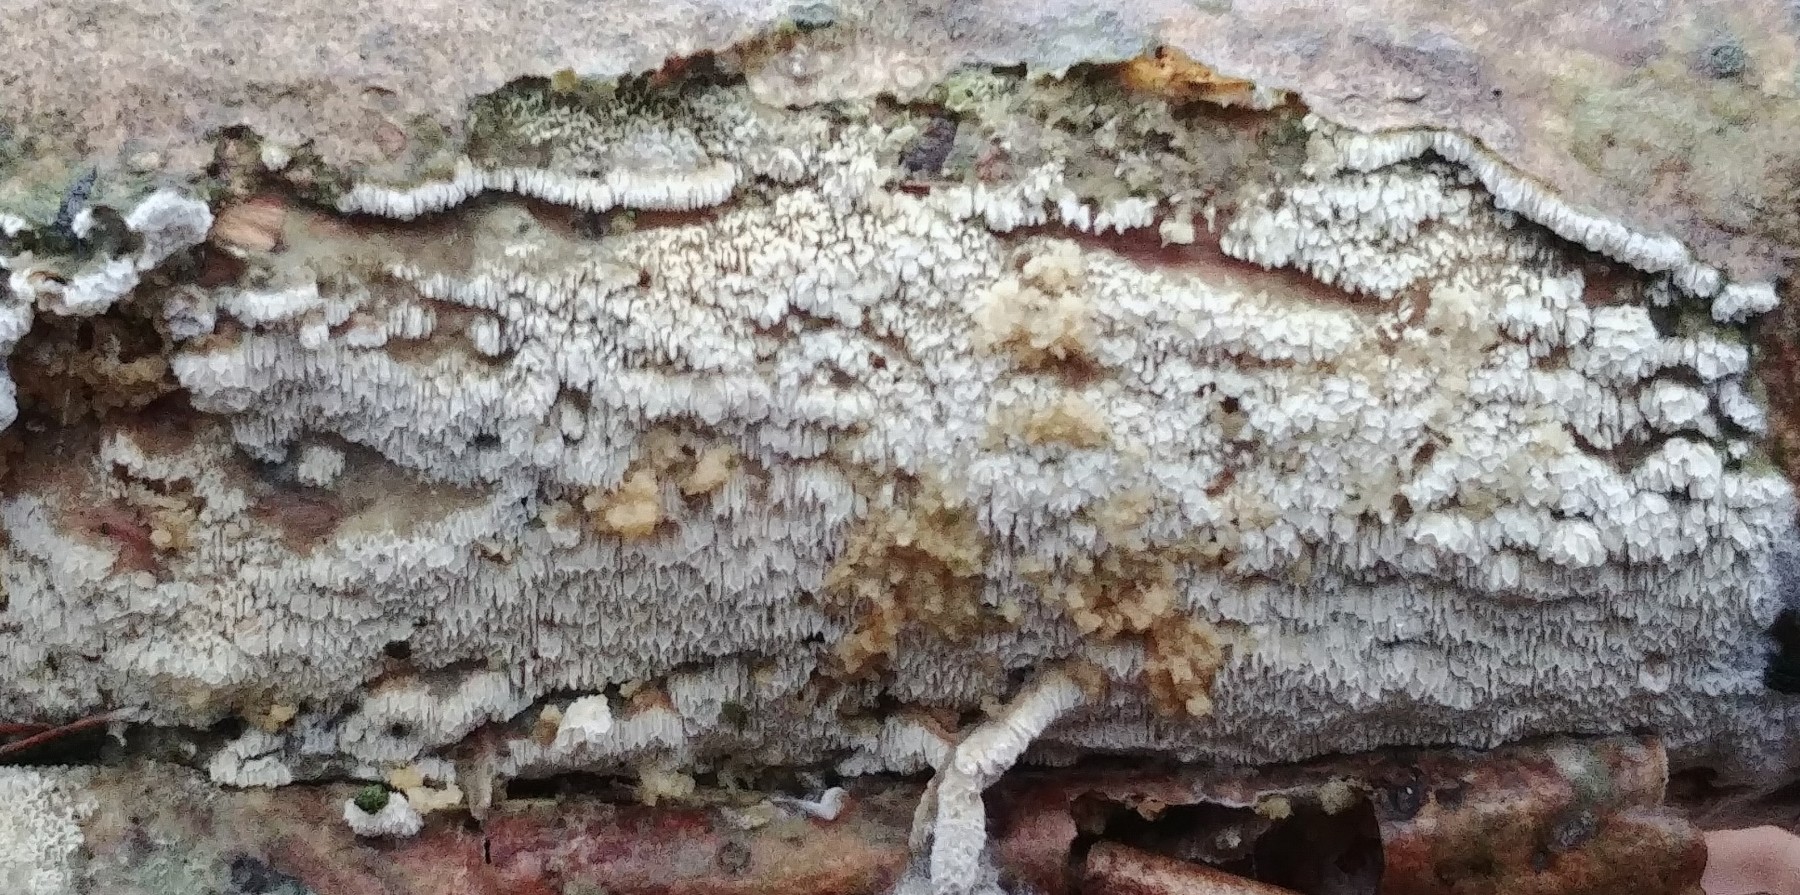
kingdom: Fungi
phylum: Basidiomycota
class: Agaricomycetes
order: Hymenochaetales
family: Schizoporaceae
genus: Schizopora
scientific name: Schizopora paradoxa
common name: hvid tandsvamp
